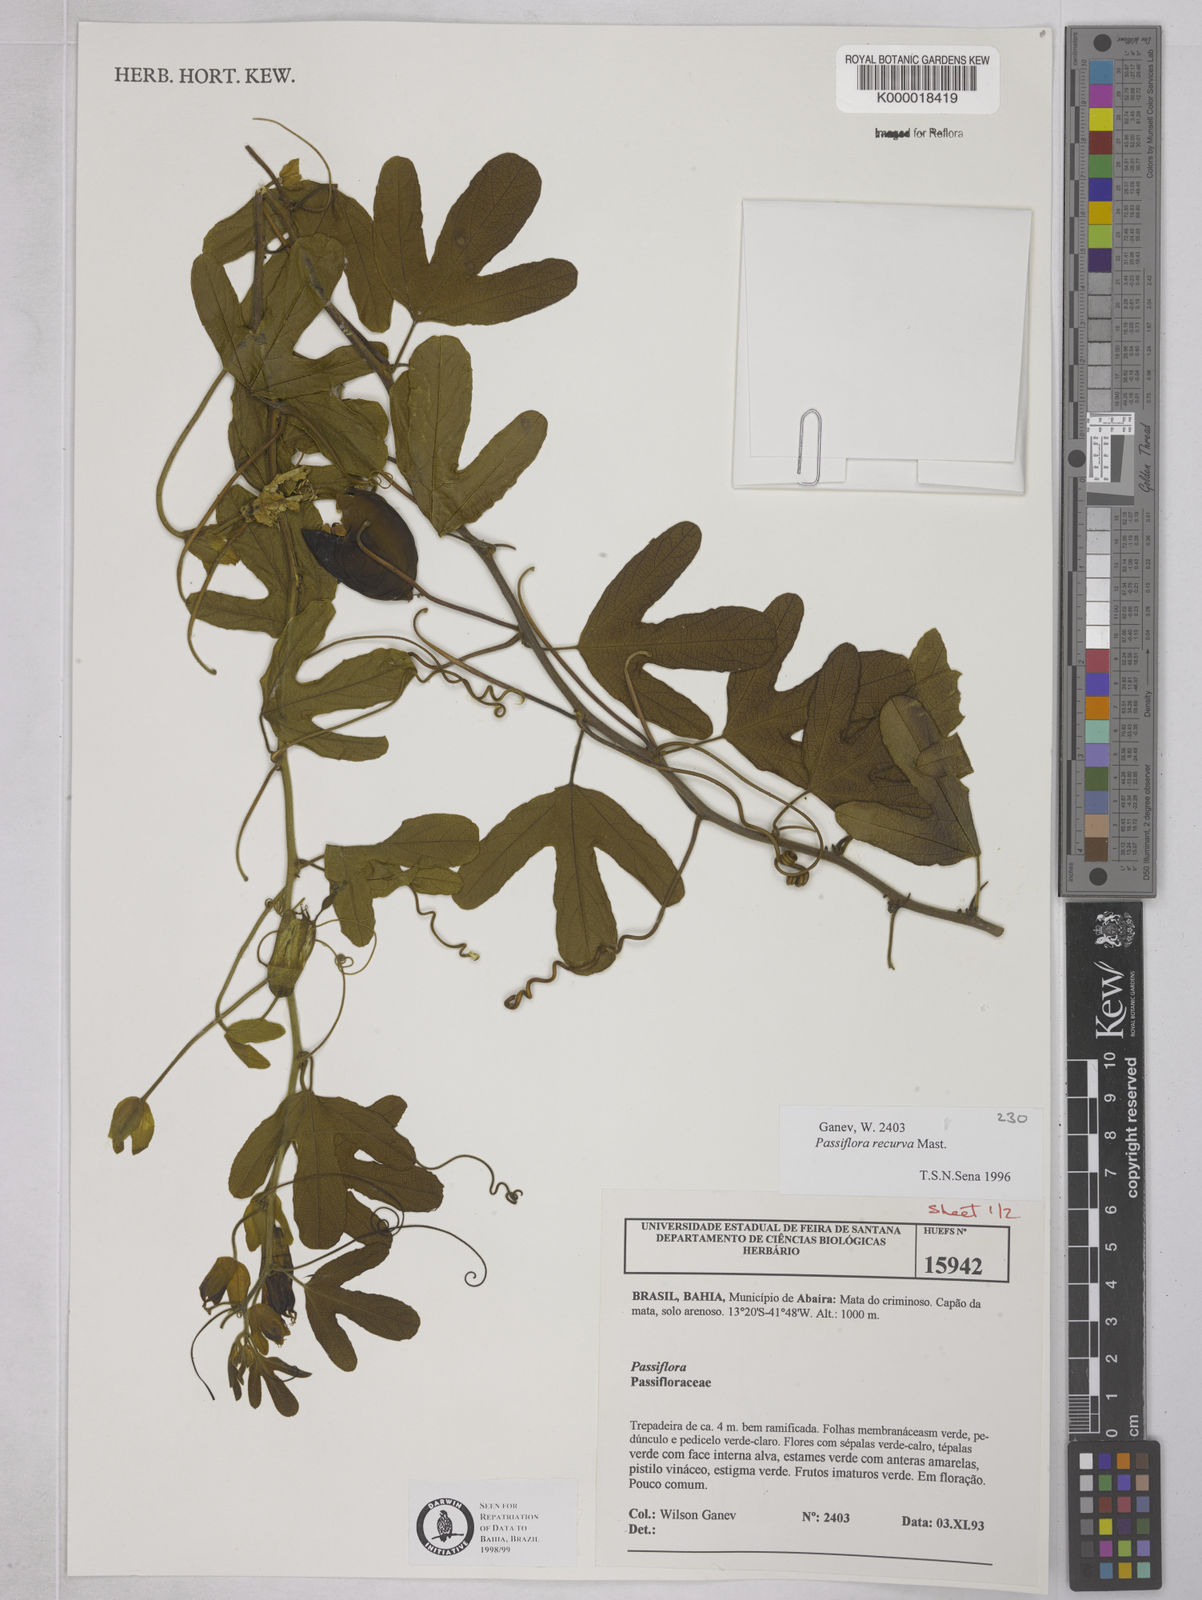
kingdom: Plantae
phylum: Tracheophyta
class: Magnoliopsida
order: Malpighiales
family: Passifloraceae
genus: Passiflora
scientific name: Passiflora recurva
